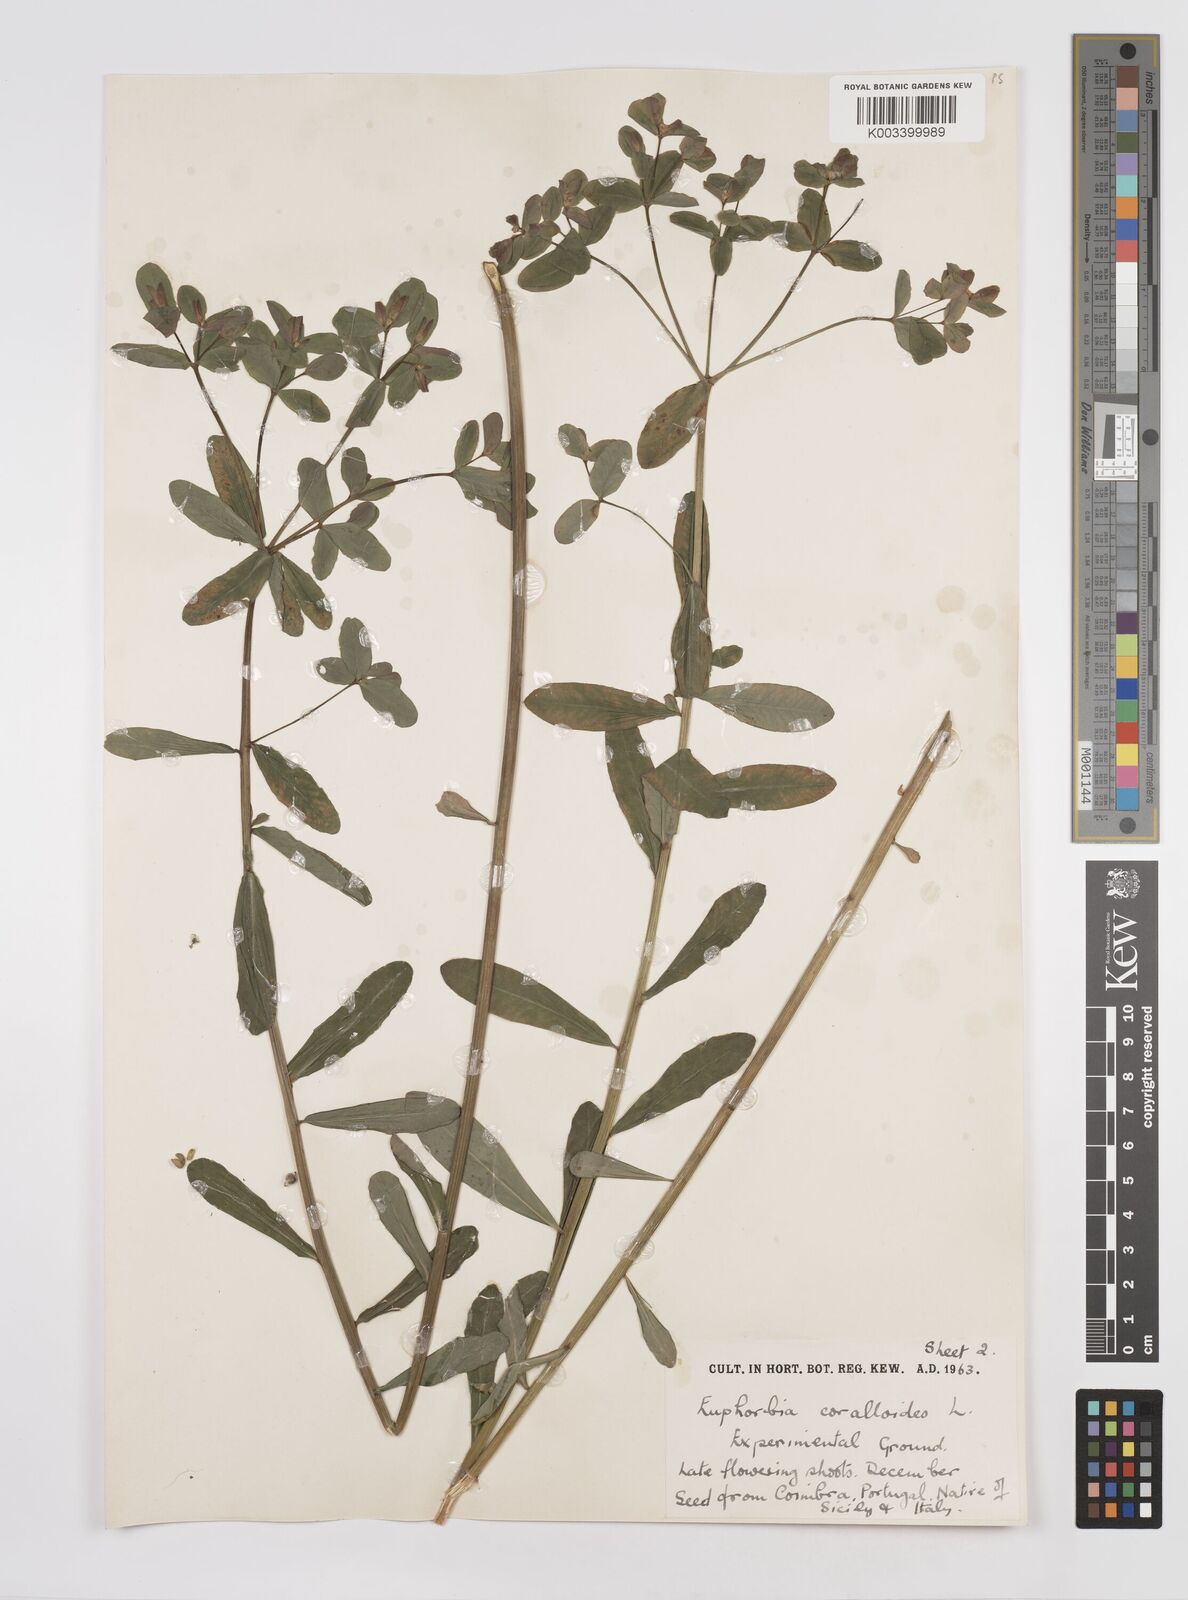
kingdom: Plantae
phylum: Tracheophyta
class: Magnoliopsida
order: Malpighiales
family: Euphorbiaceae
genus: Euphorbia
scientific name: Euphorbia corallioides
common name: Coral spurge
